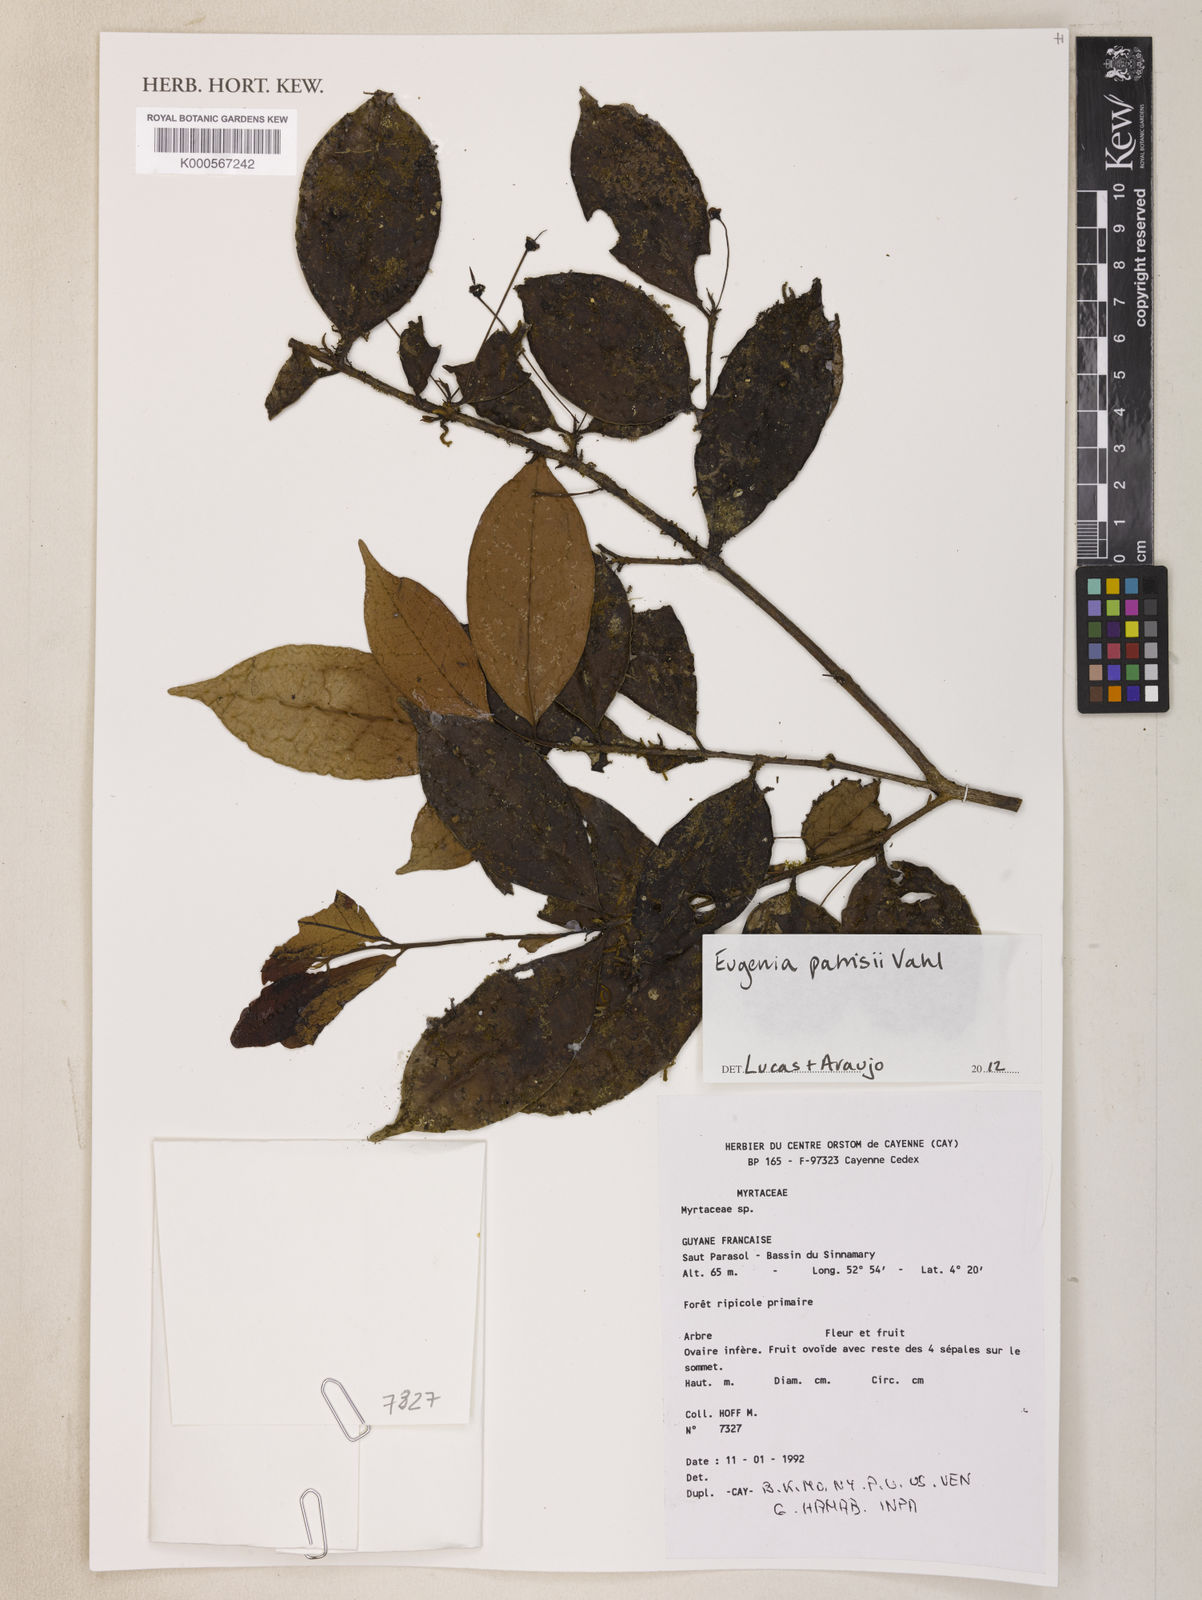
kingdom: Plantae
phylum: Tracheophyta
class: Magnoliopsida
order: Myrtales
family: Myrtaceae
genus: Eugenia
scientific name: Eugenia patrisii
